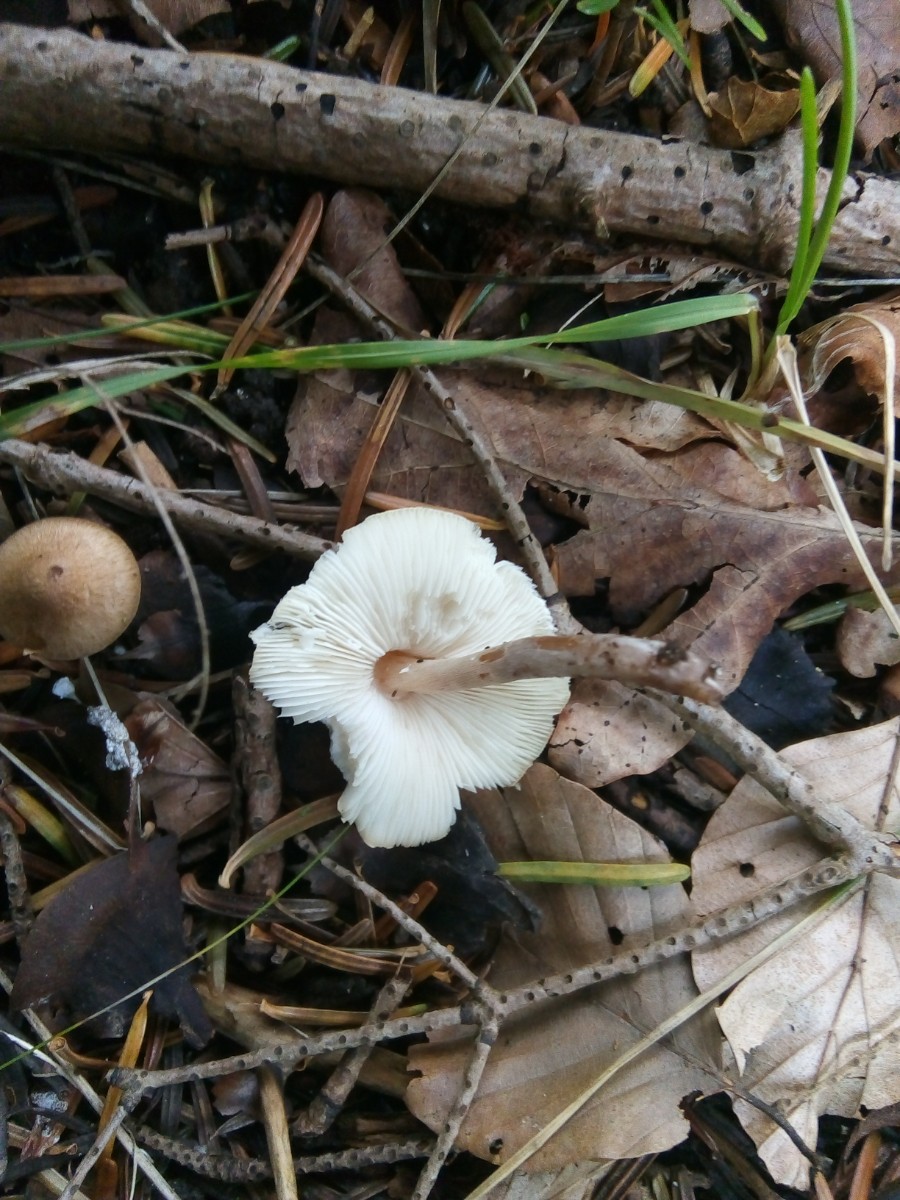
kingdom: Fungi
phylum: Basidiomycota
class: Agaricomycetes
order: Agaricales
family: Agaricaceae
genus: Lepiota
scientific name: Lepiota cristata
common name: stinkende parasolhat
